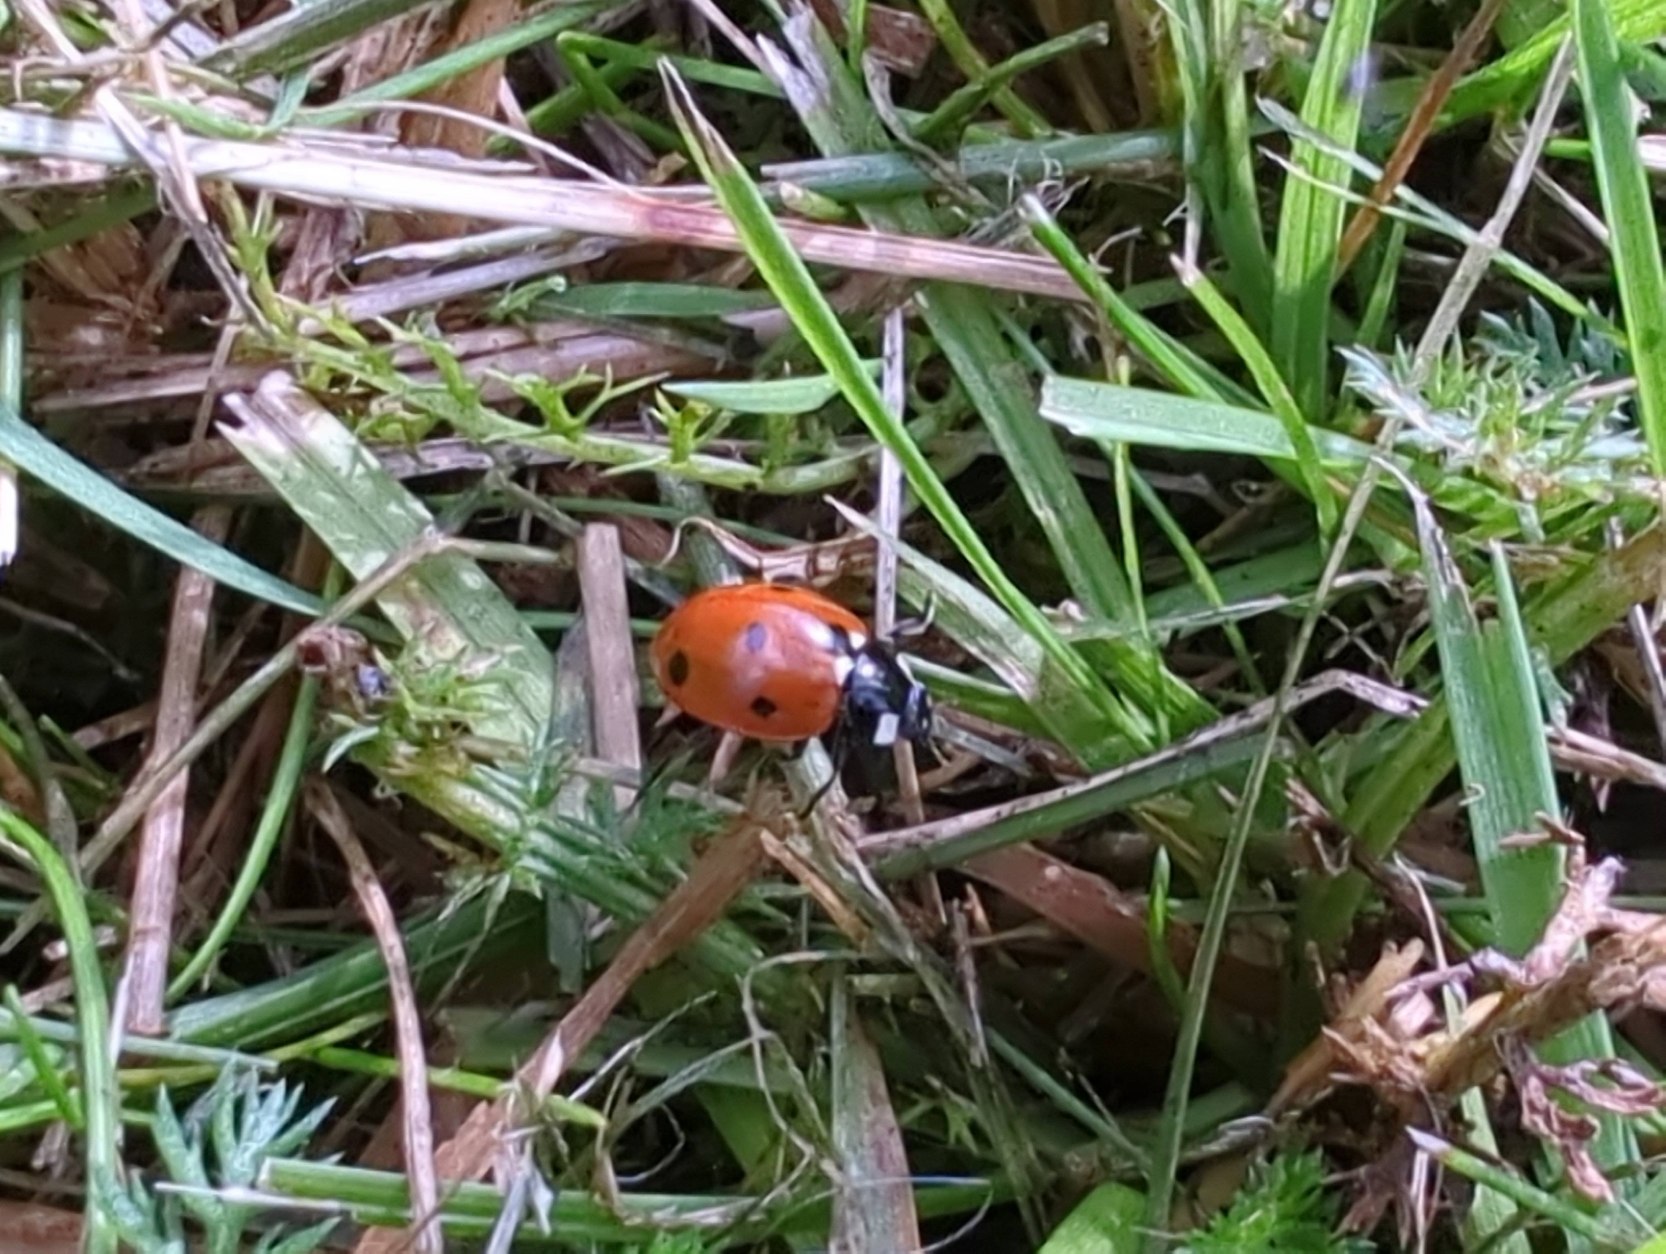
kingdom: Animalia
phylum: Arthropoda
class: Insecta
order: Coleoptera
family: Coccinellidae
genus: Coccinella
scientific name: Coccinella septempunctata
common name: Syvplettet mariehøne
